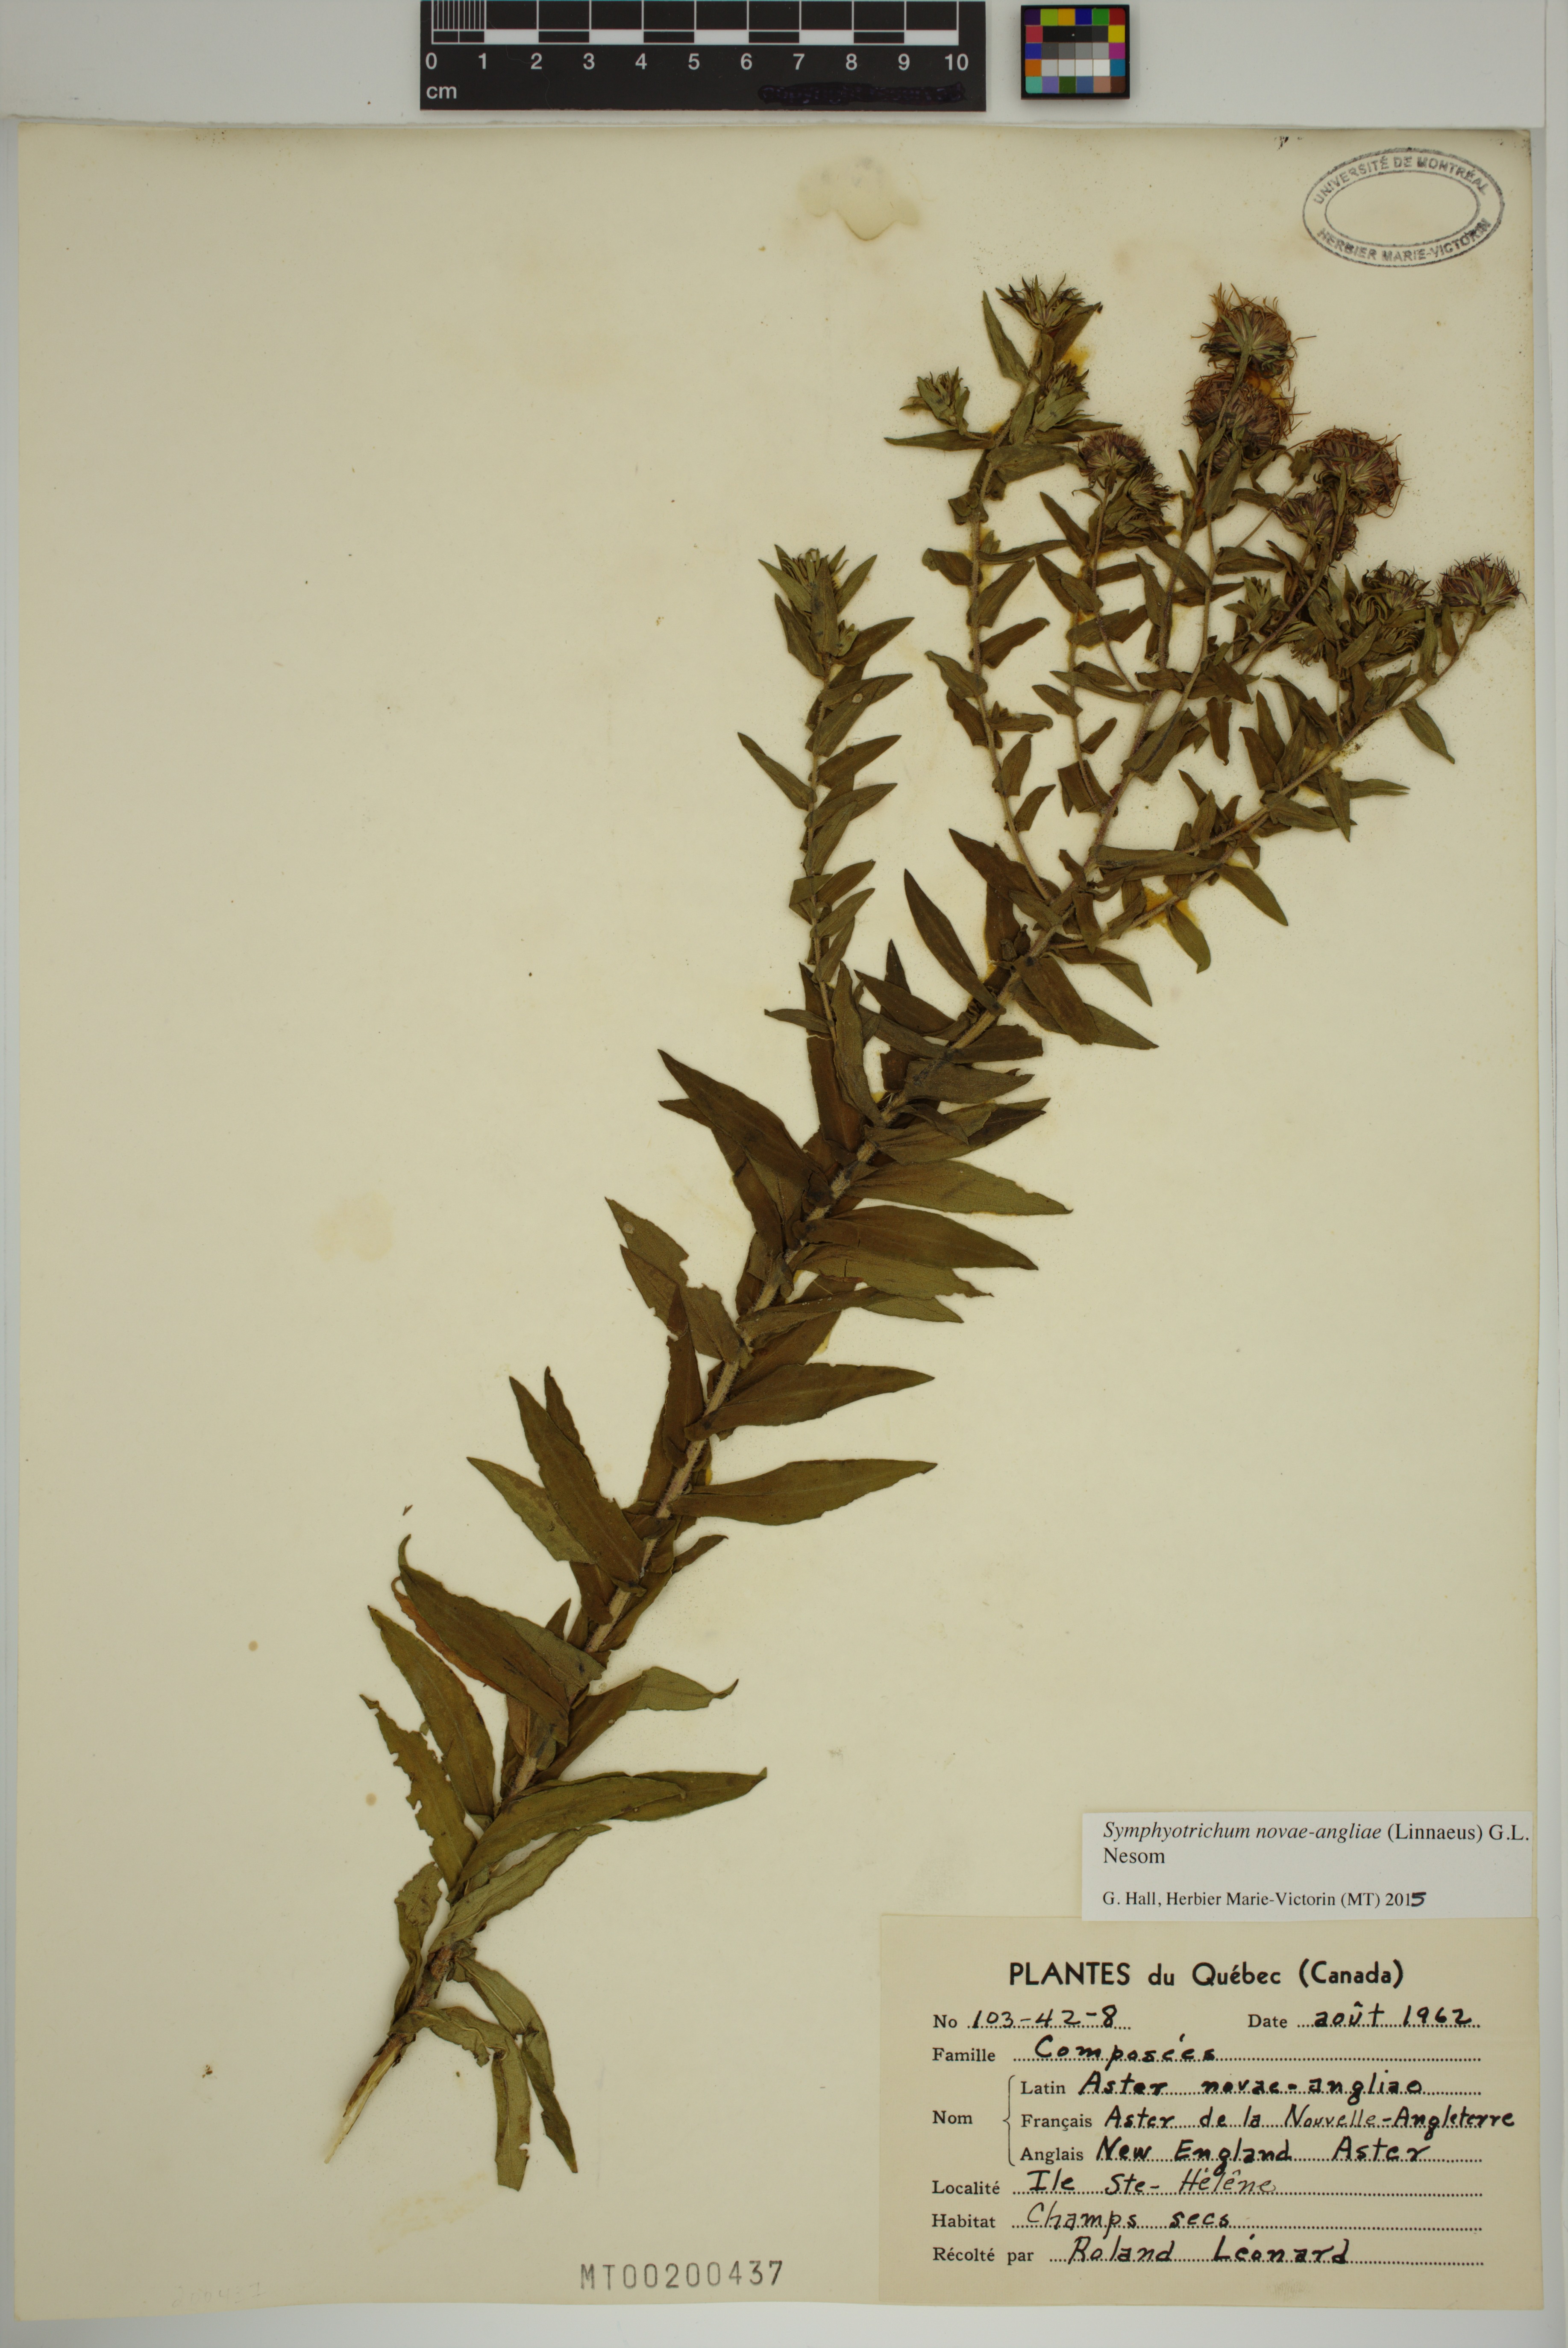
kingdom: Plantae
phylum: Tracheophyta
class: Magnoliopsida
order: Asterales
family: Asteraceae
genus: Symphyotrichum
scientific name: Symphyotrichum novae-angliae
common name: Michaelmas daisy
